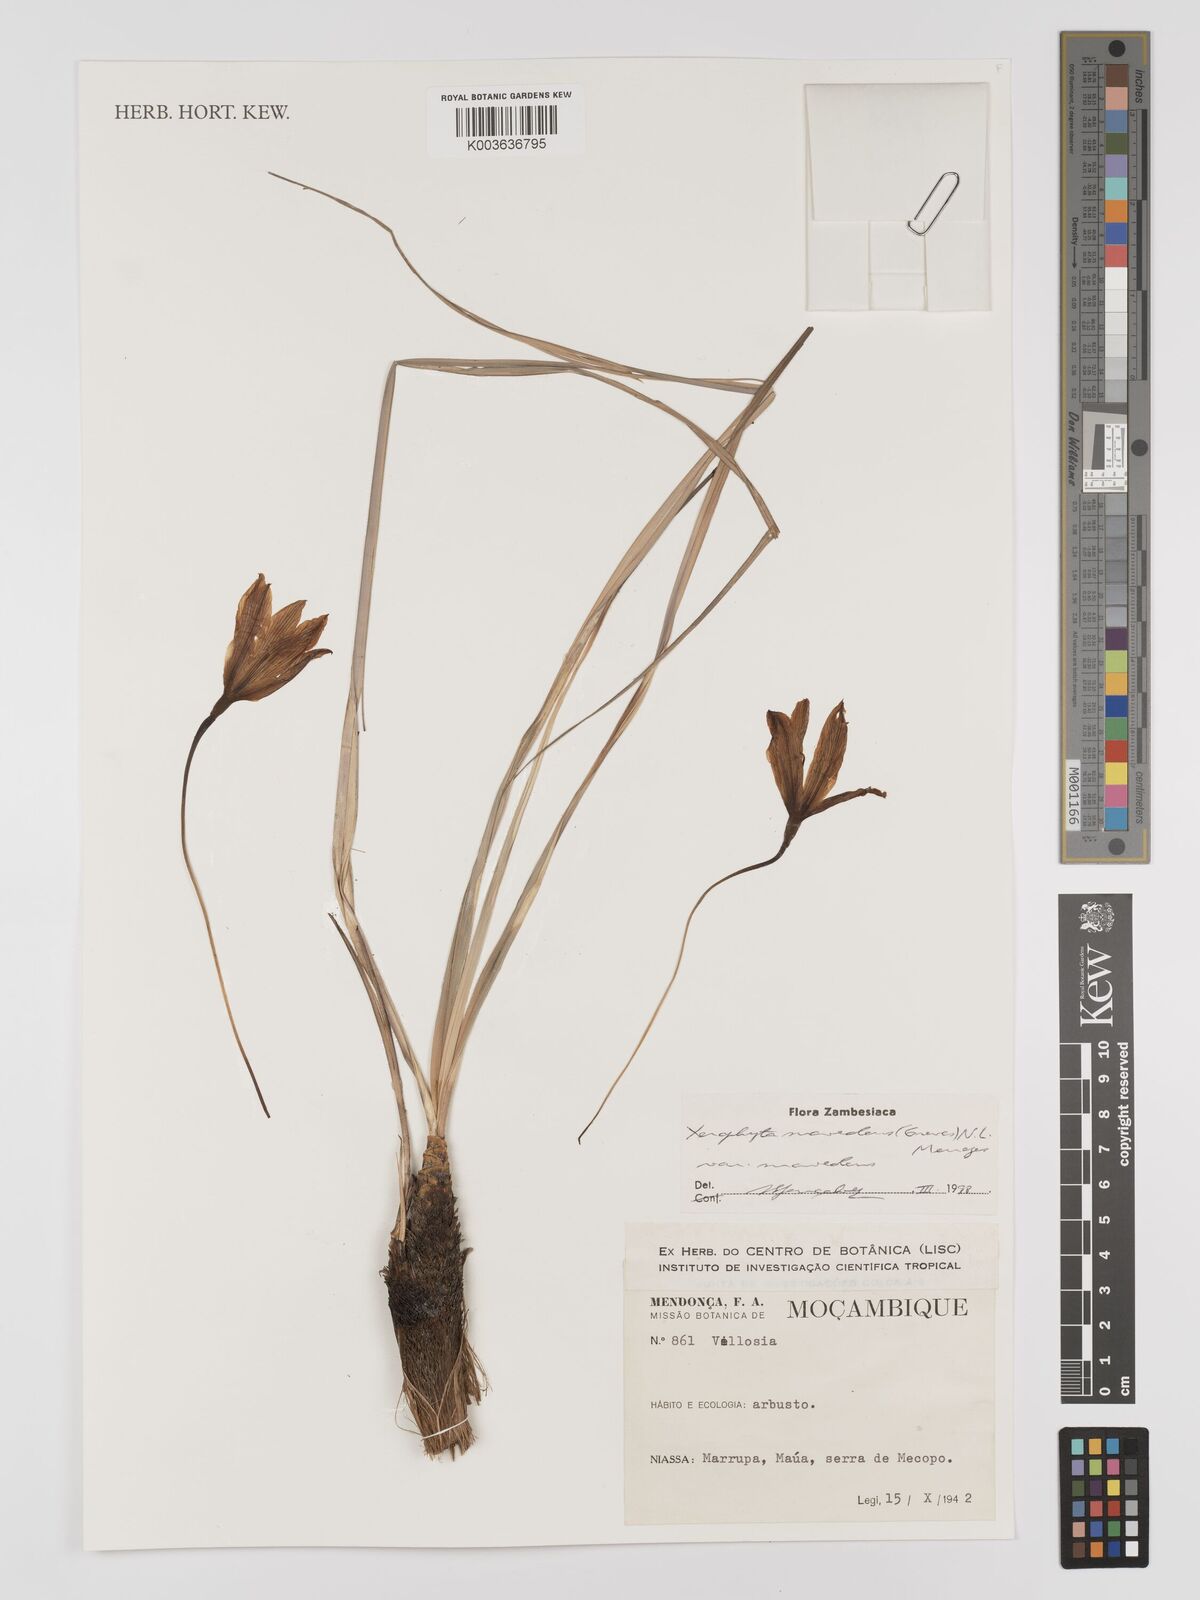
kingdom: Plantae
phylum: Tracheophyta
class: Liliopsida
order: Pandanales
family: Velloziaceae
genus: Xerophyta
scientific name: Xerophyta suaveolens
